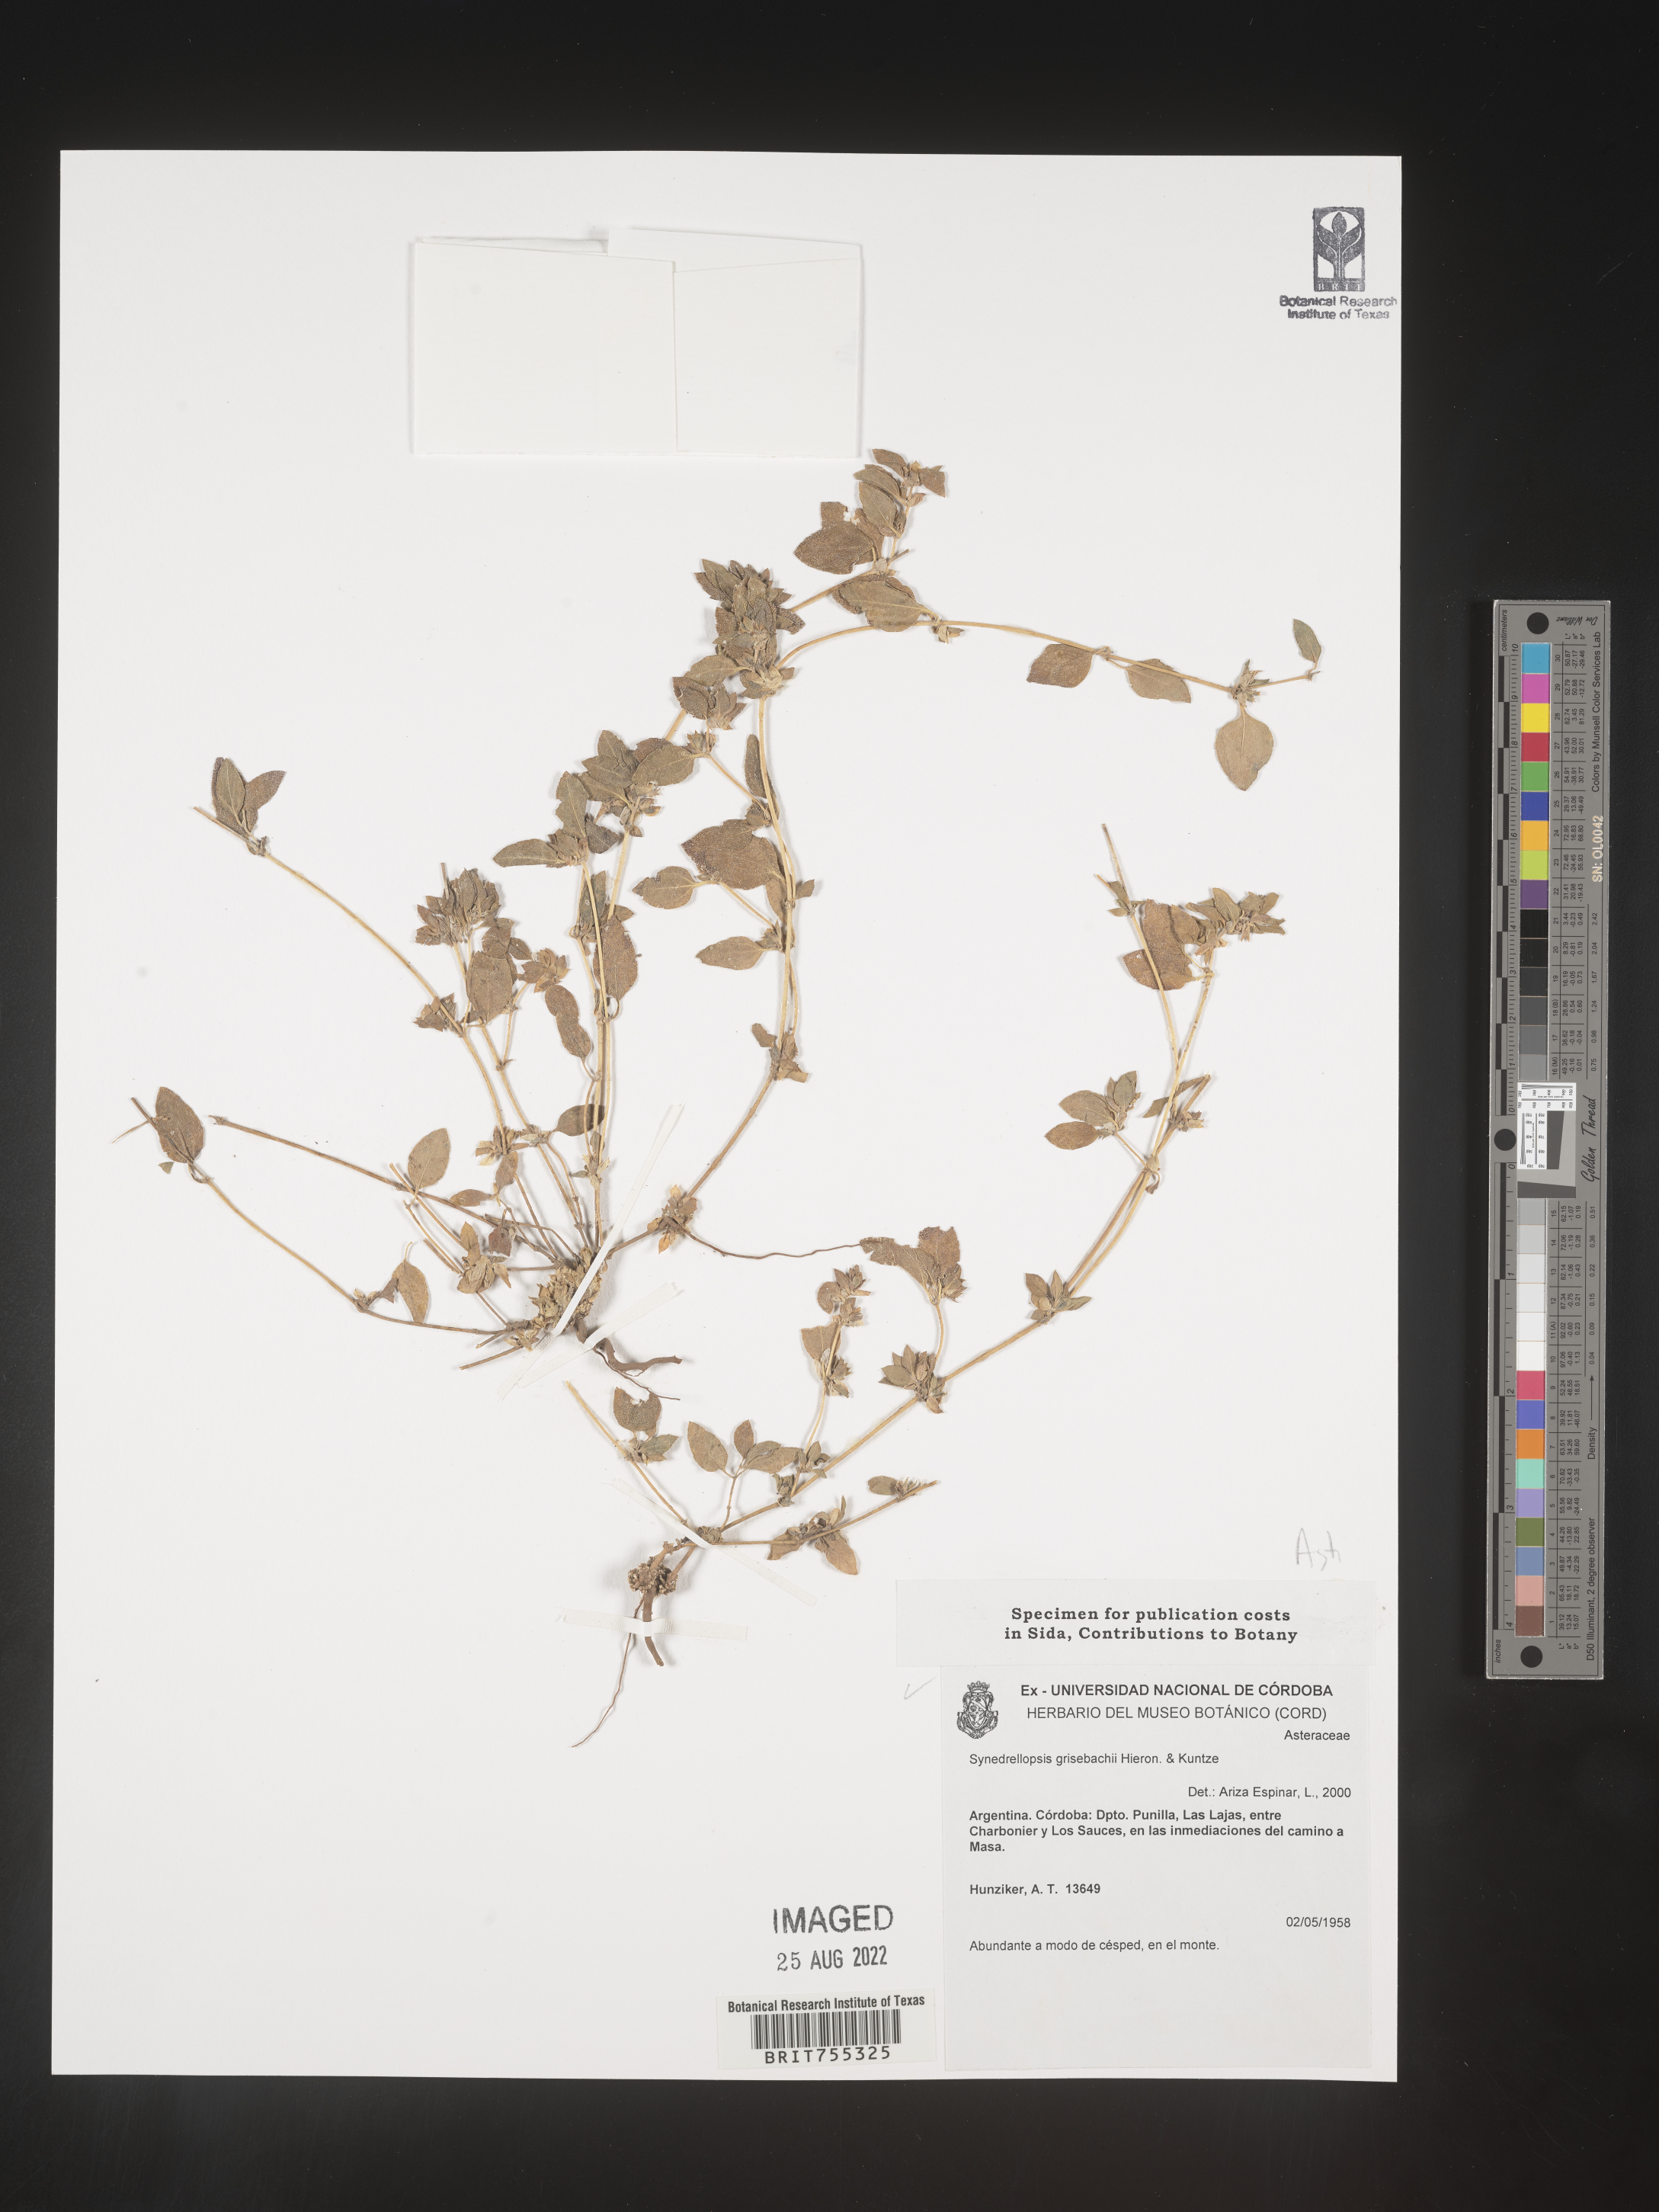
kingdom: Plantae
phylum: Tracheophyta
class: Magnoliopsida
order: Asterales
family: Asteraceae
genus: Synedrellopsis
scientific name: Synedrellopsis grisebachii
